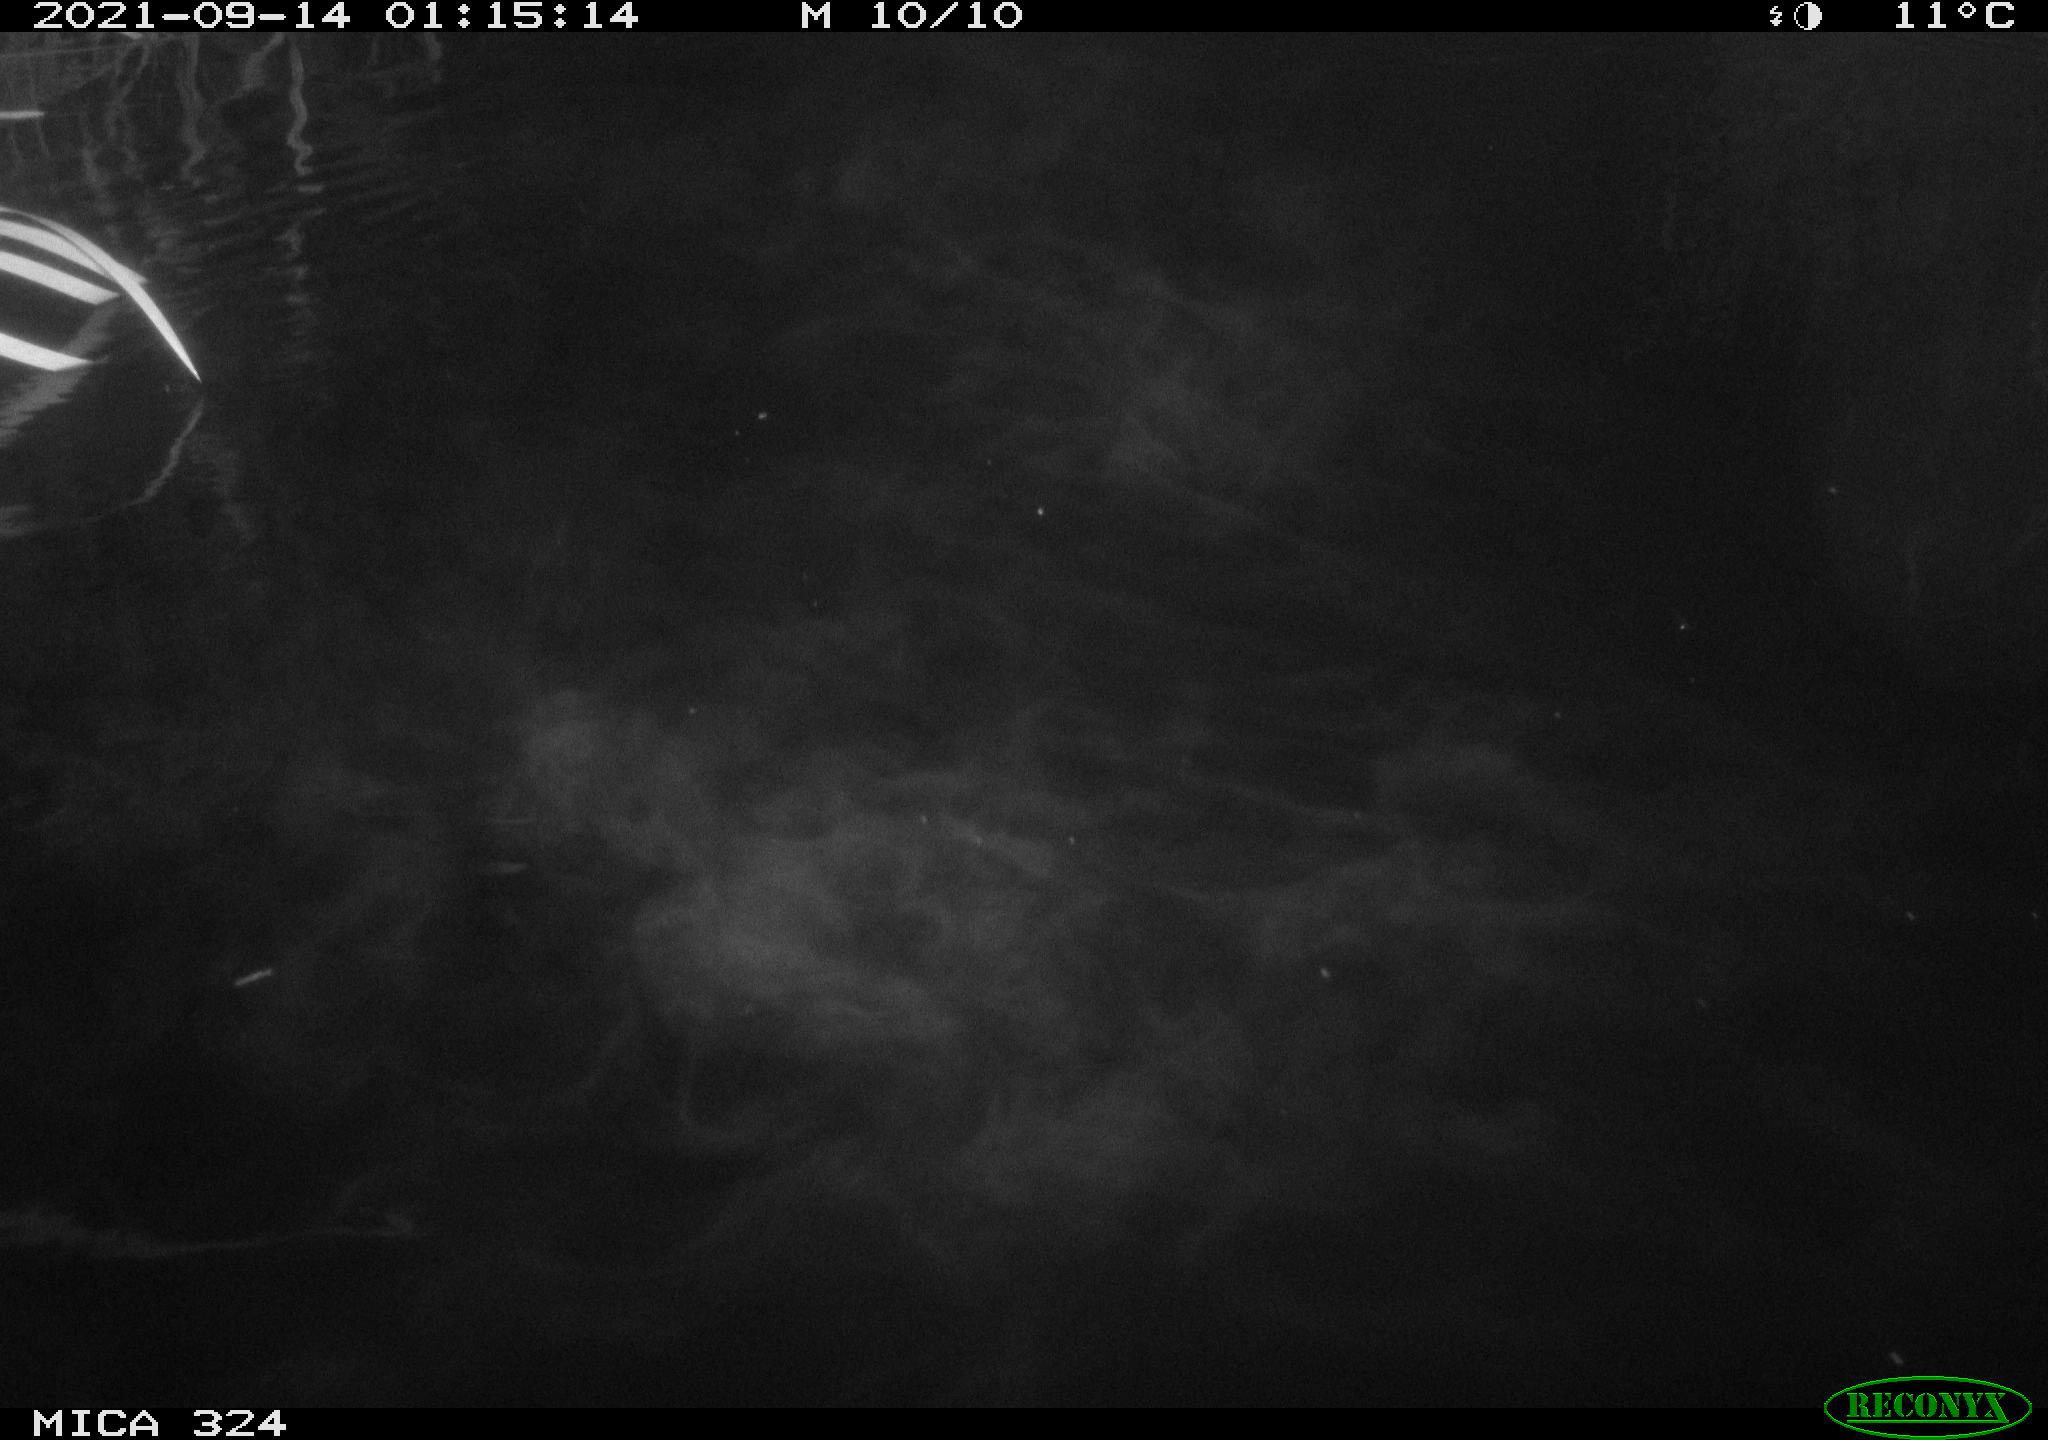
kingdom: Animalia
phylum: Chordata
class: Mammalia
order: Rodentia
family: Cricetidae
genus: Ondatra
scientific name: Ondatra zibethicus
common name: Muskrat
